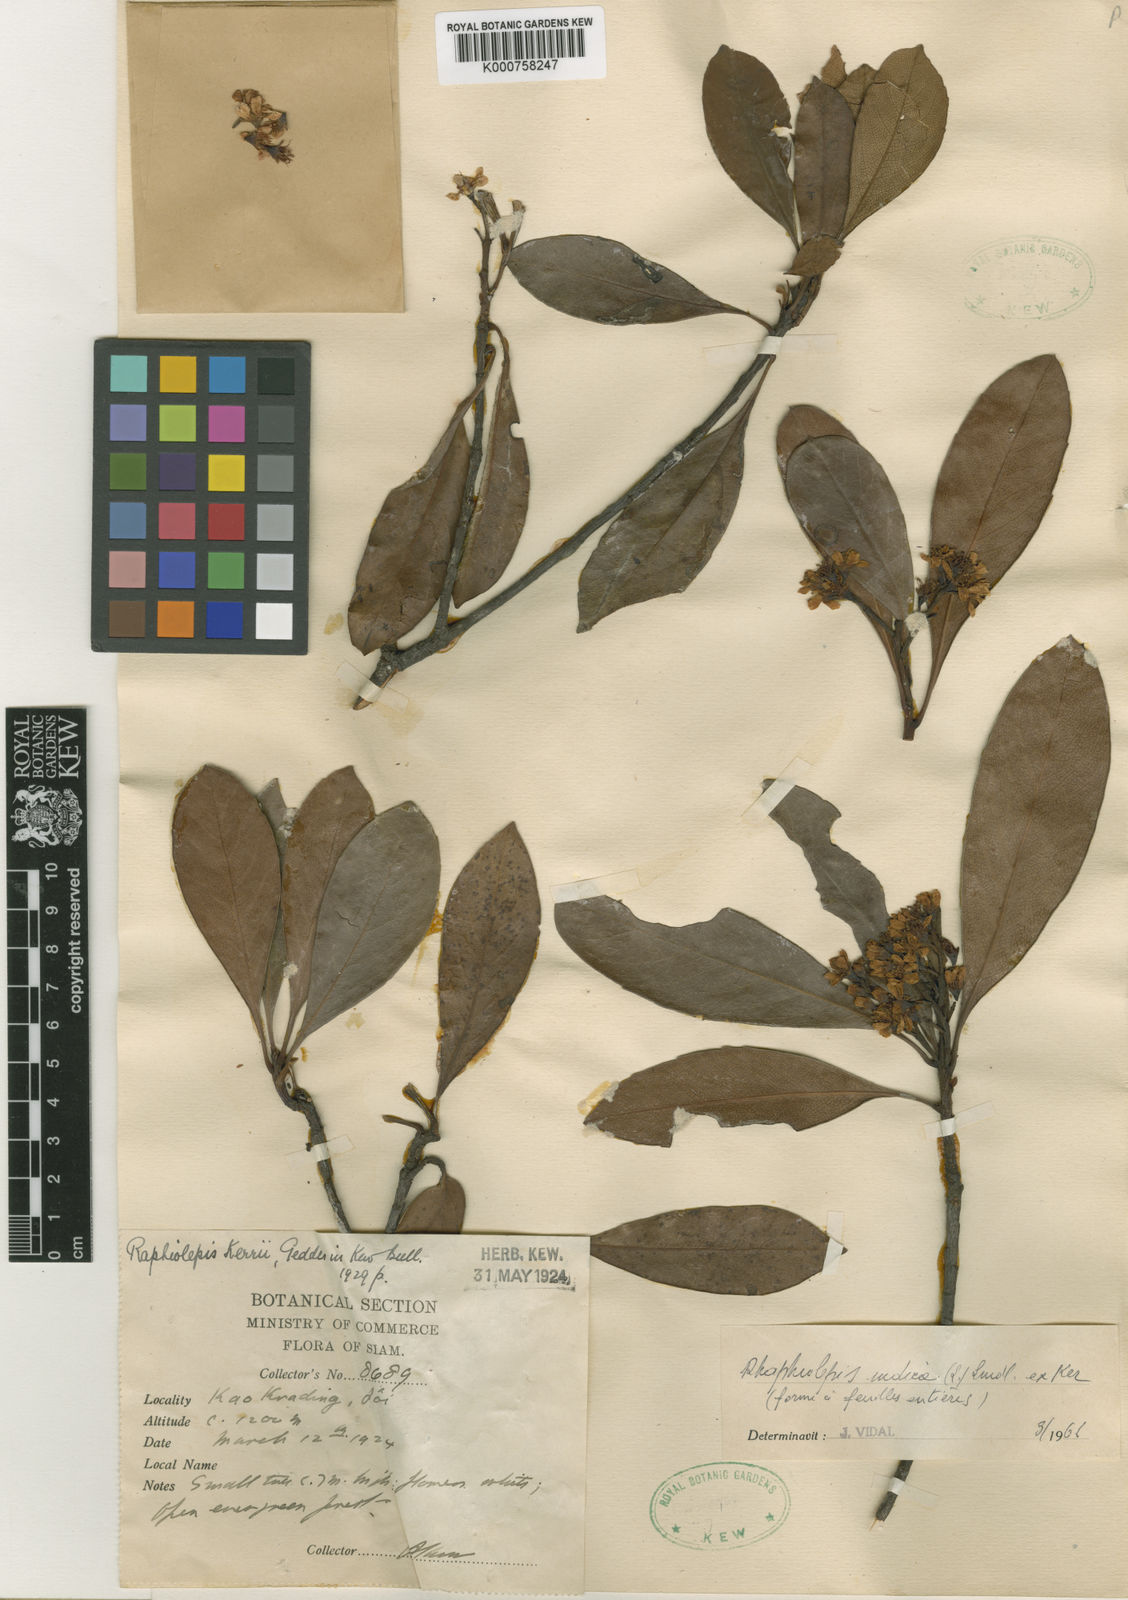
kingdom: Plantae
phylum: Tracheophyta
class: Magnoliopsida
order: Rosales
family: Rosaceae
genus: Rhaphiolepis
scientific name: Rhaphiolepis indica
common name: India-hawthorn
